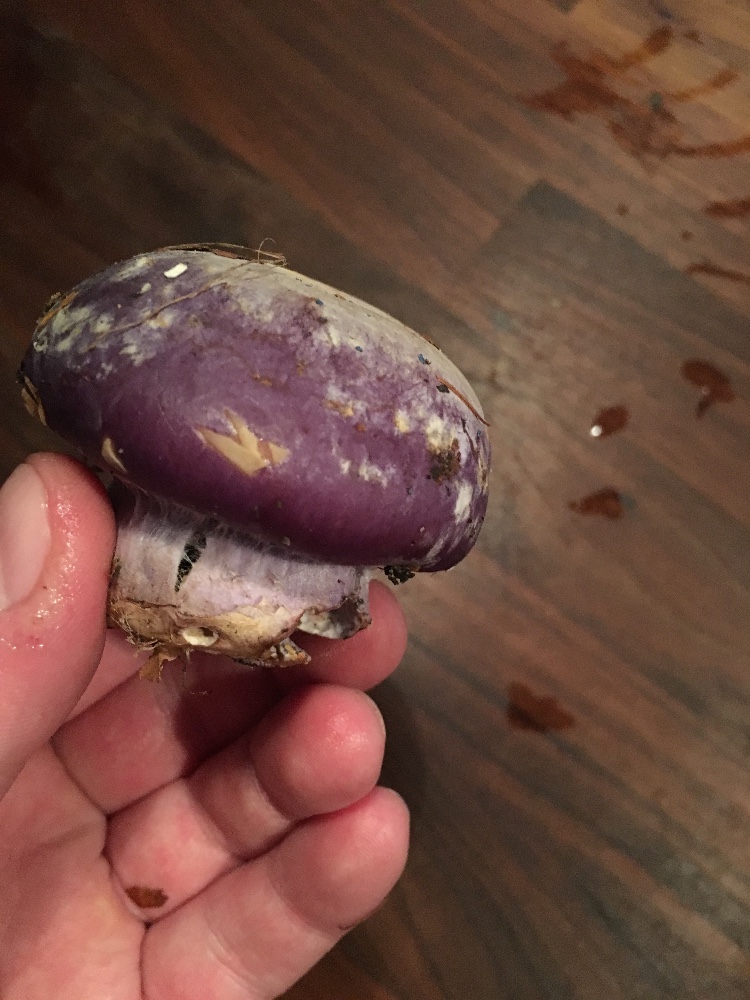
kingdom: Fungi
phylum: Basidiomycota
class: Agaricomycetes
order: Agaricales
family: Cortinariaceae
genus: Cortinarius
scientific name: Cortinarius caerulescens
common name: blåkødet slørhat
